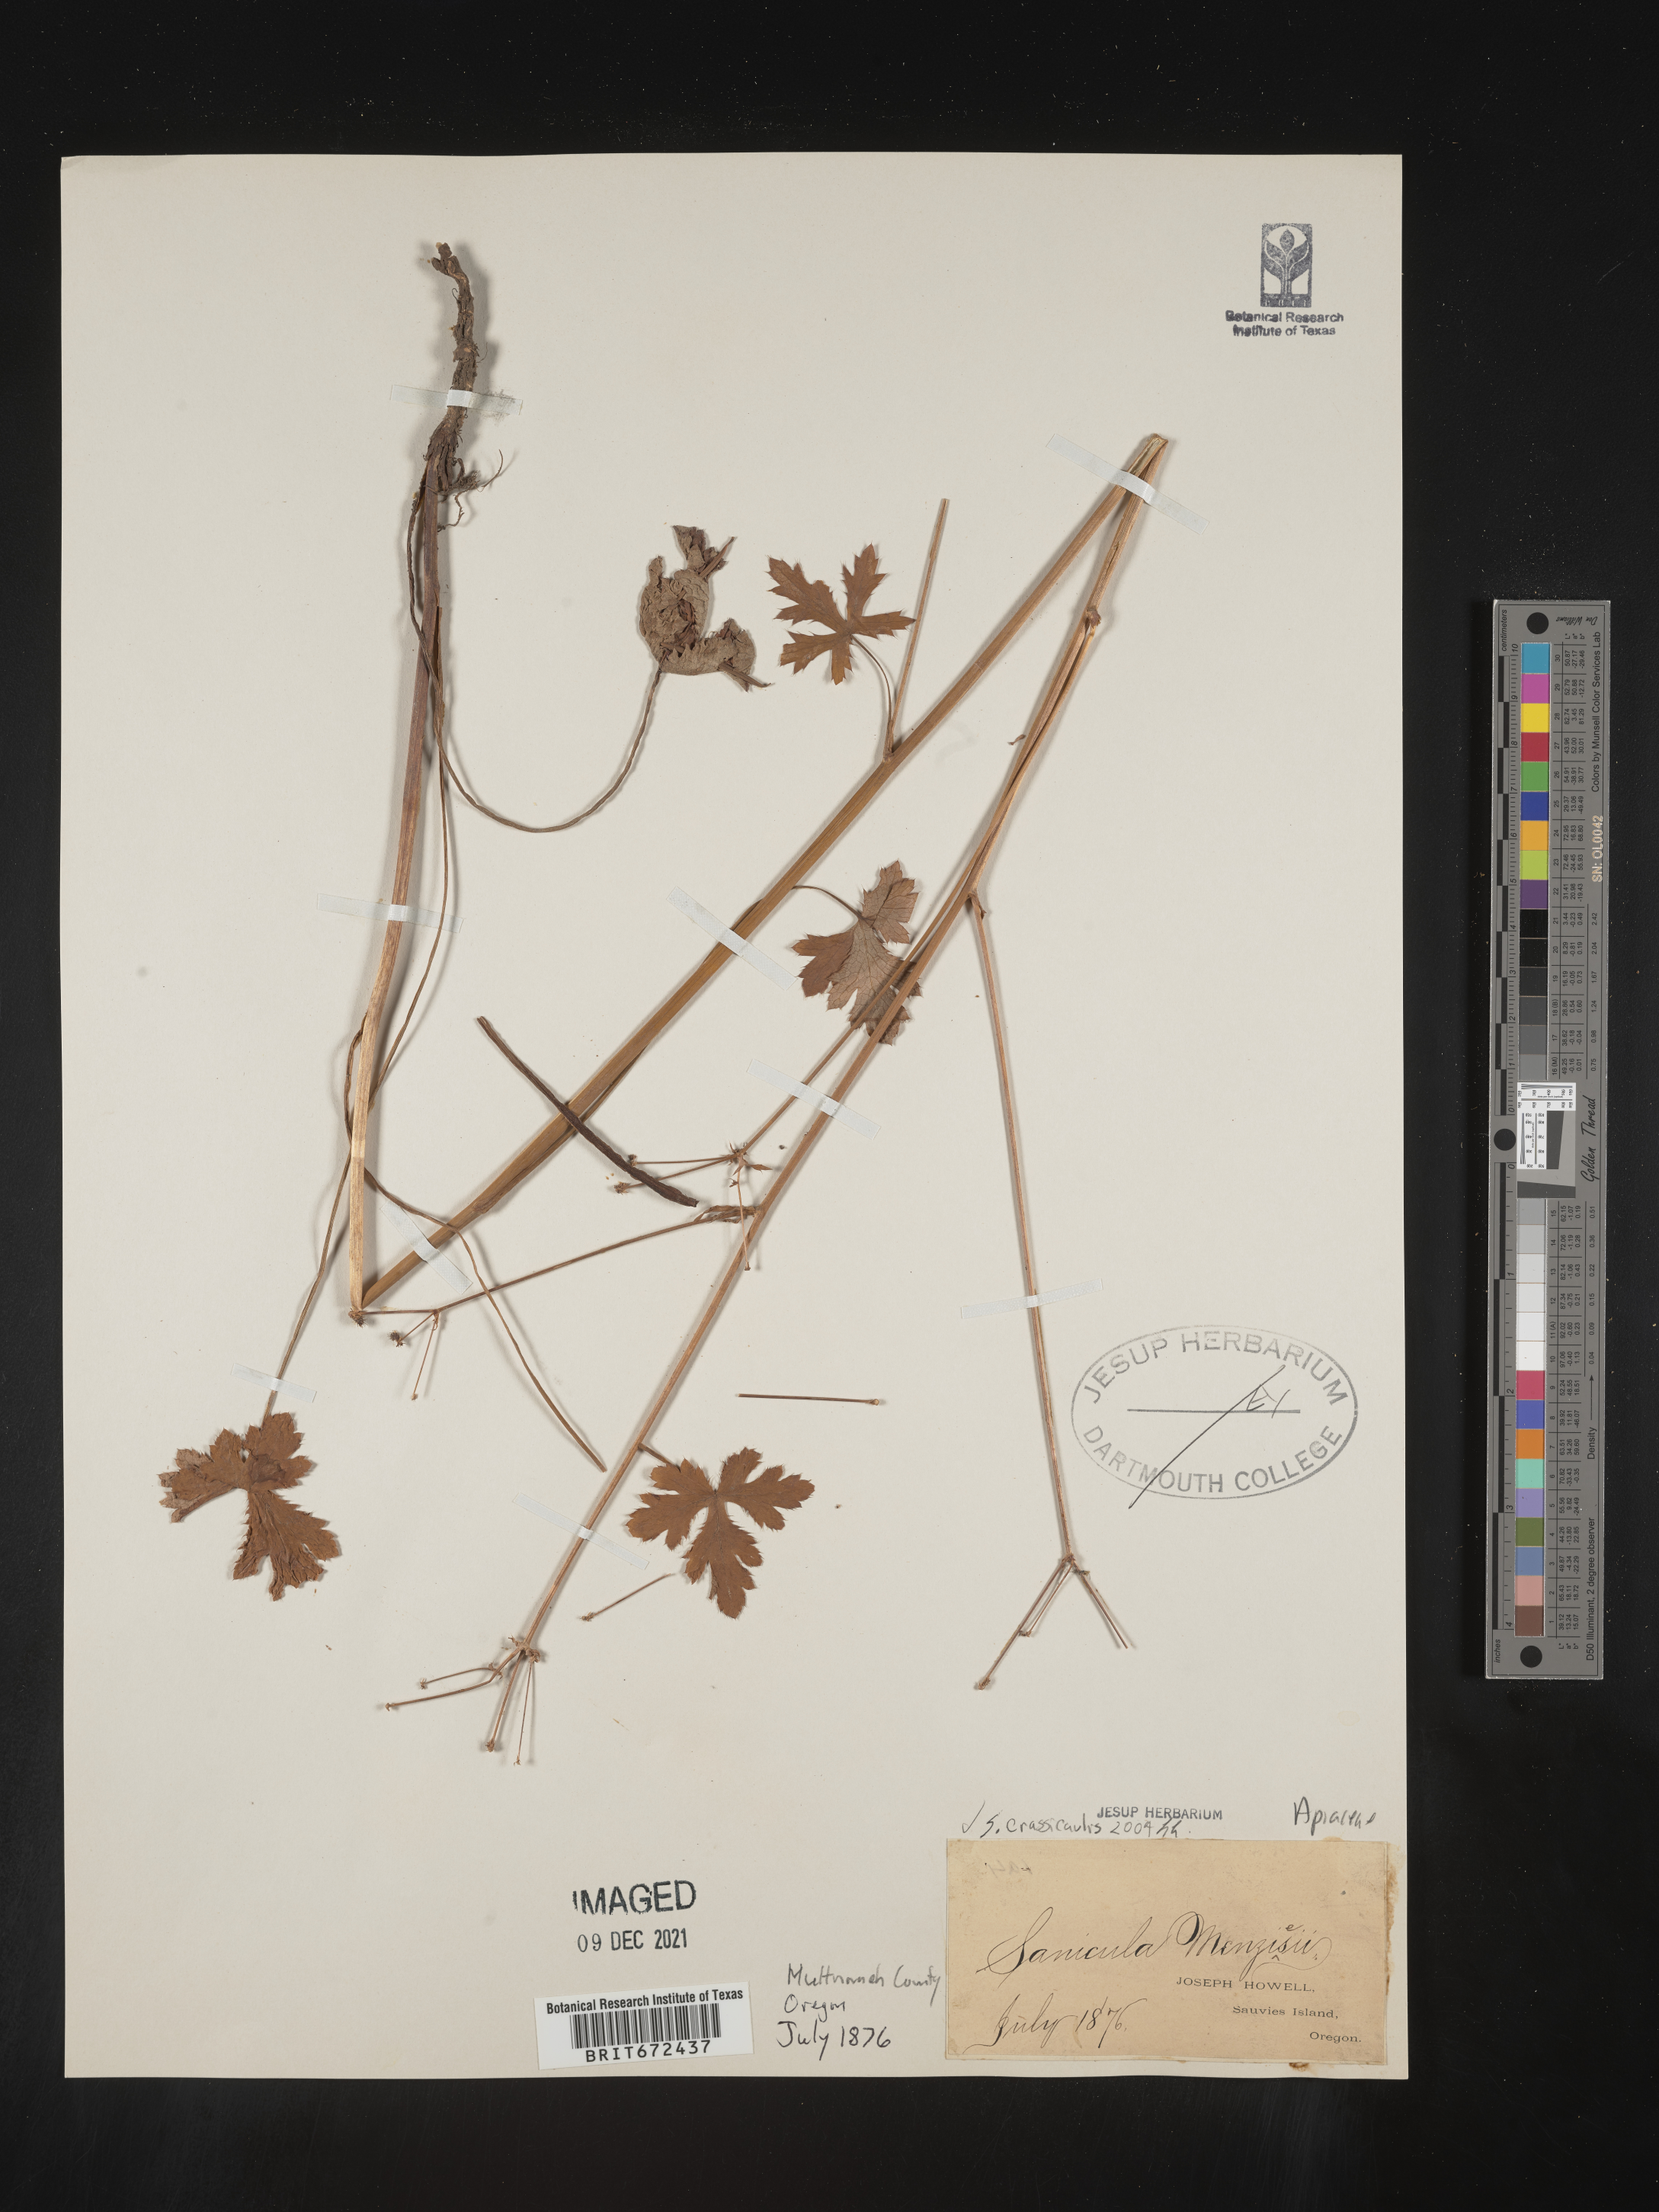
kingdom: Plantae
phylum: Tracheophyta
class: Magnoliopsida
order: Apiales
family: Apiaceae
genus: Sanicula
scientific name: Sanicula crassicaulis
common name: Western snakeroot
